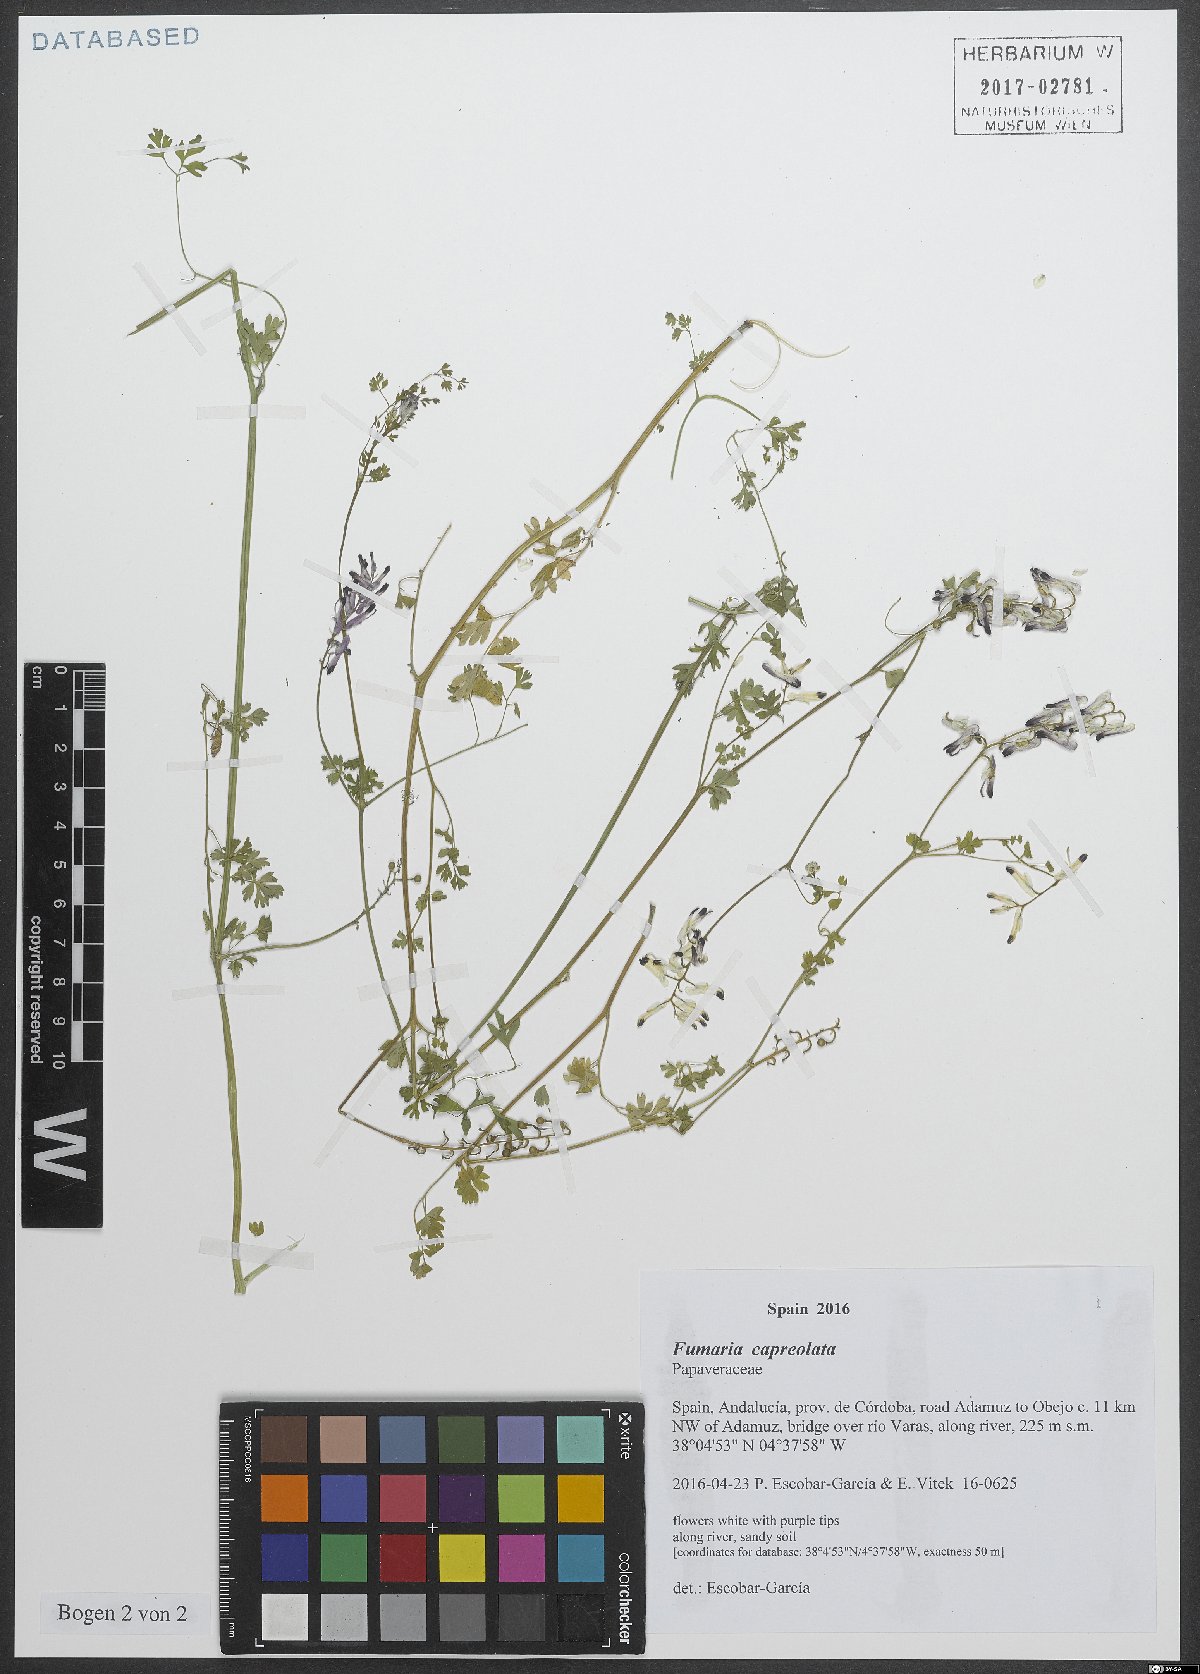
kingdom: Plantae
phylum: Tracheophyta
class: Magnoliopsida
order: Ranunculales
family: Papaveraceae
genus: Fumaria
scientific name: Fumaria capreolata
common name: White ramping-fumitory
